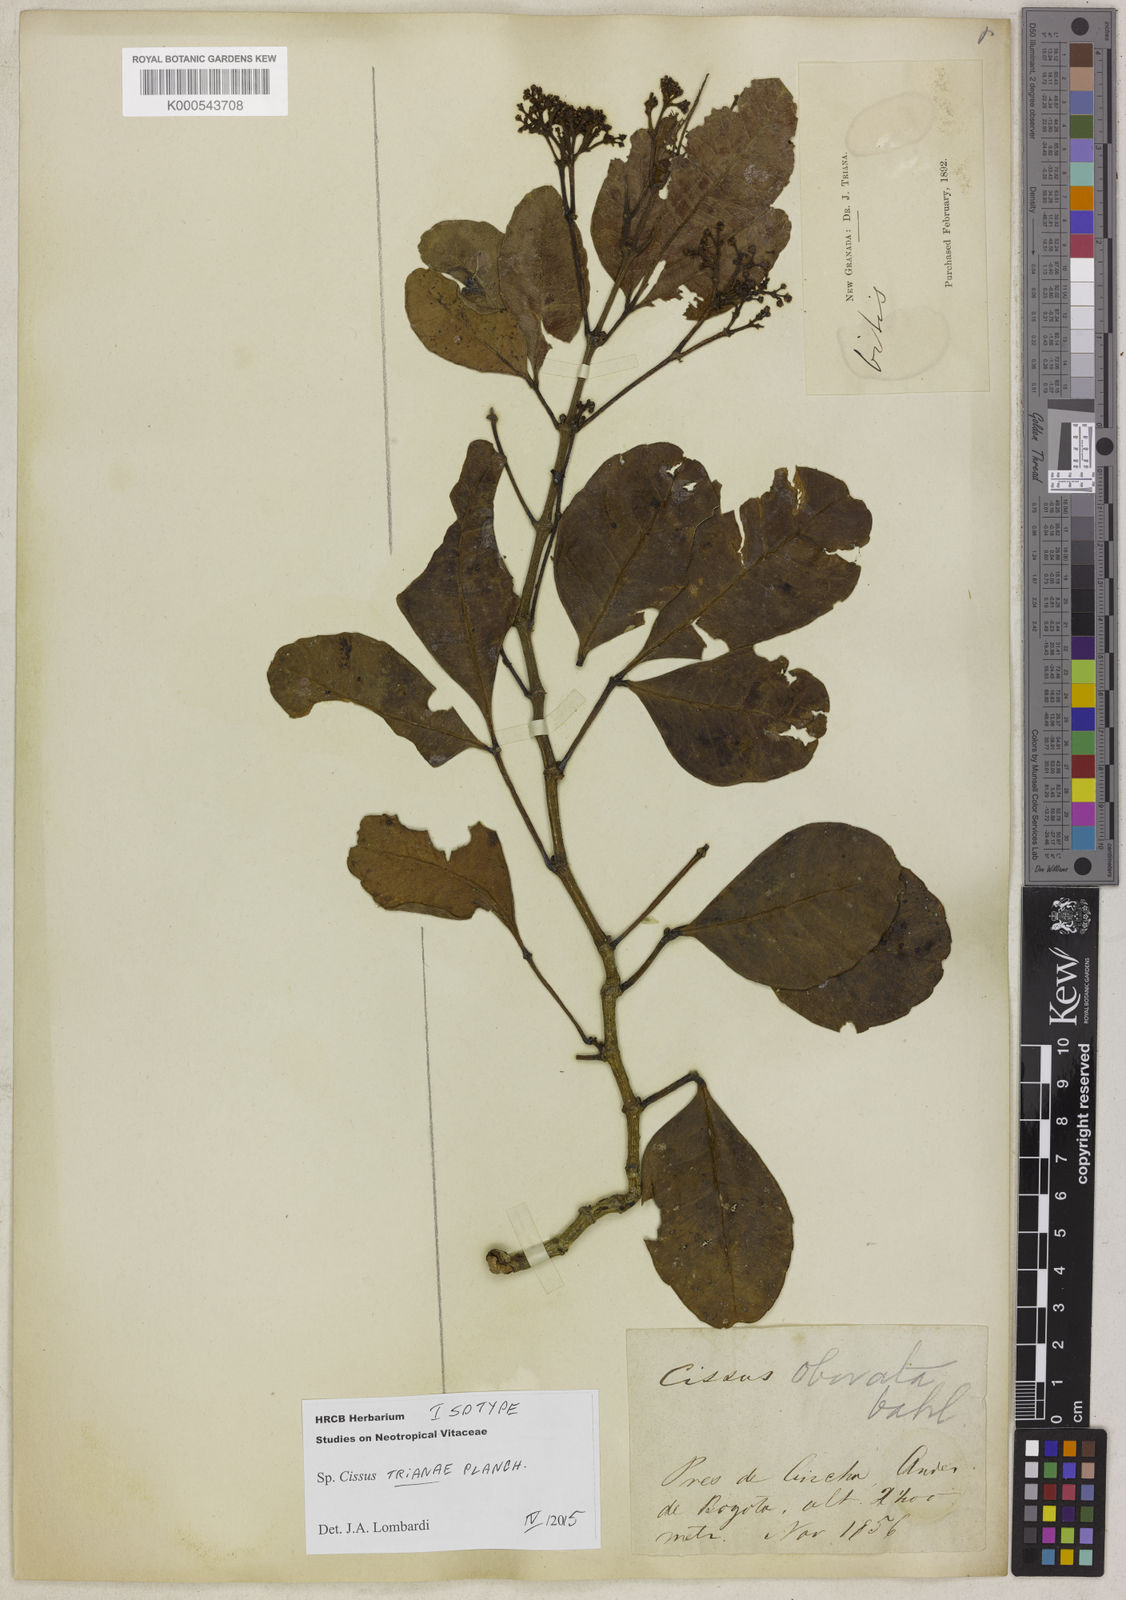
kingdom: Plantae
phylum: Tracheophyta
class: Magnoliopsida
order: Vitales
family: Vitaceae
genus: Cissus
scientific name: Cissus trianae
